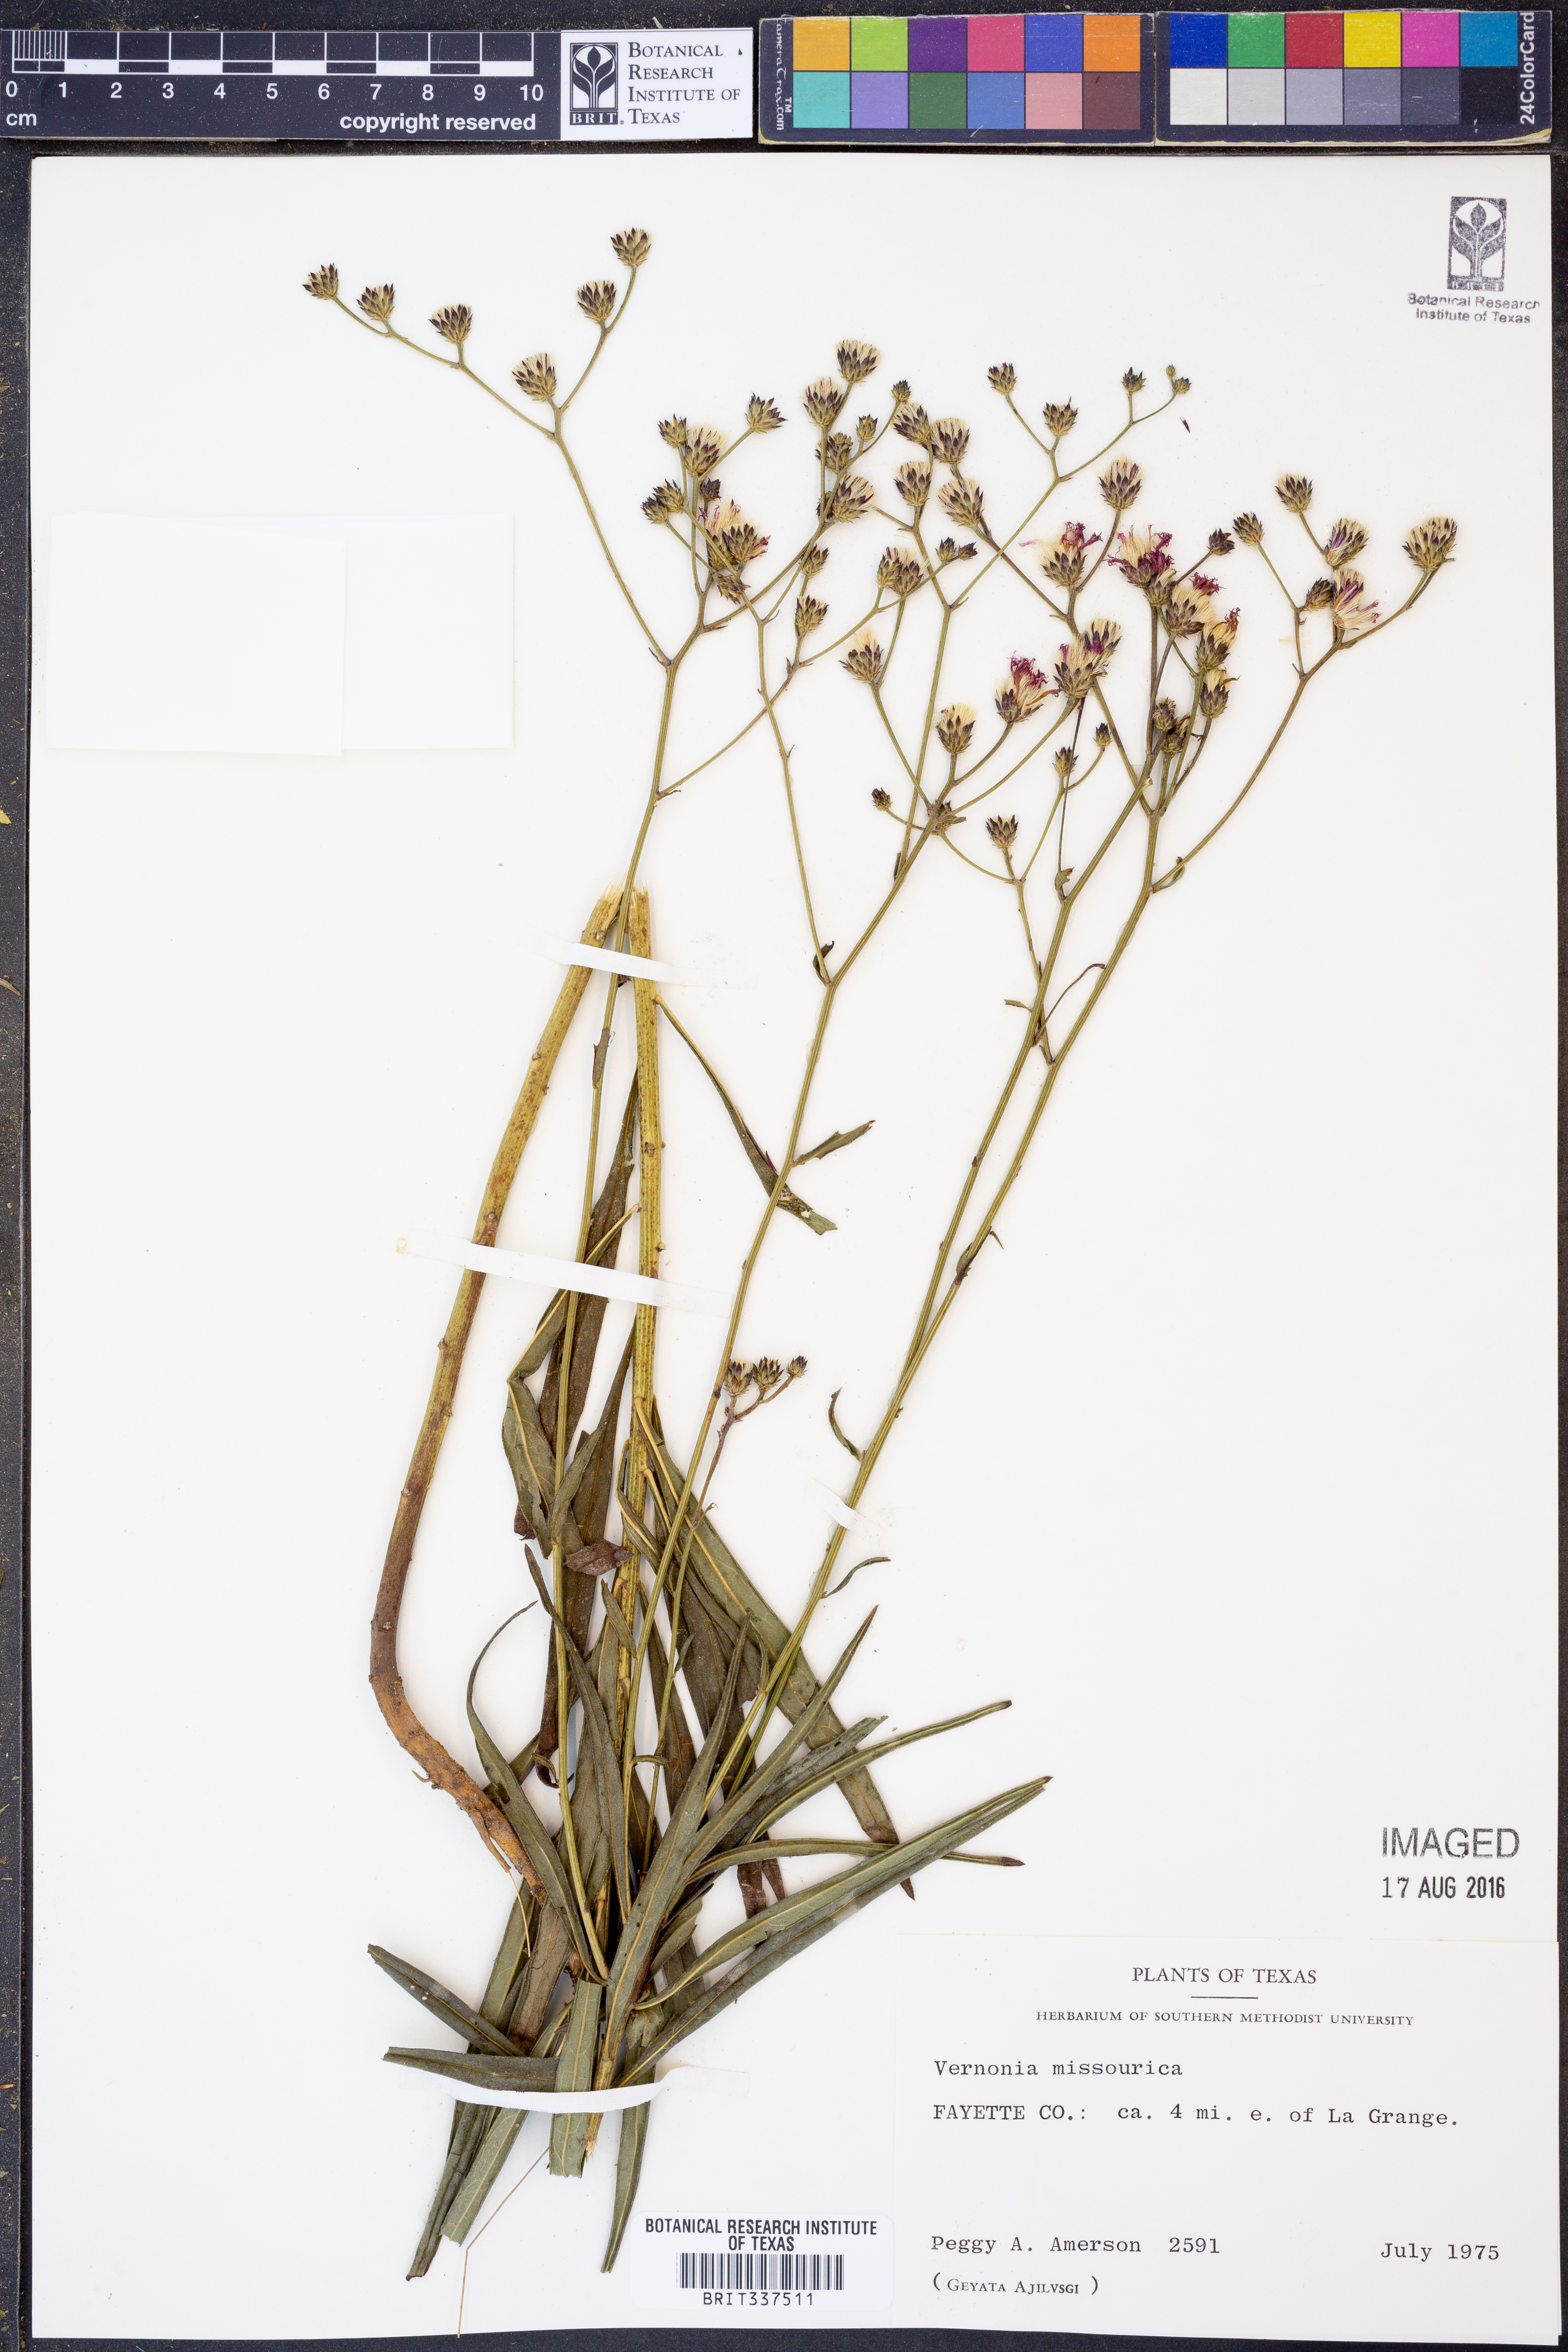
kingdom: Plantae
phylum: Tracheophyta
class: Magnoliopsida
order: Asterales
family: Asteraceae
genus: Vernonia
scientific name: Vernonia missurica
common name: Missouri ironweed
